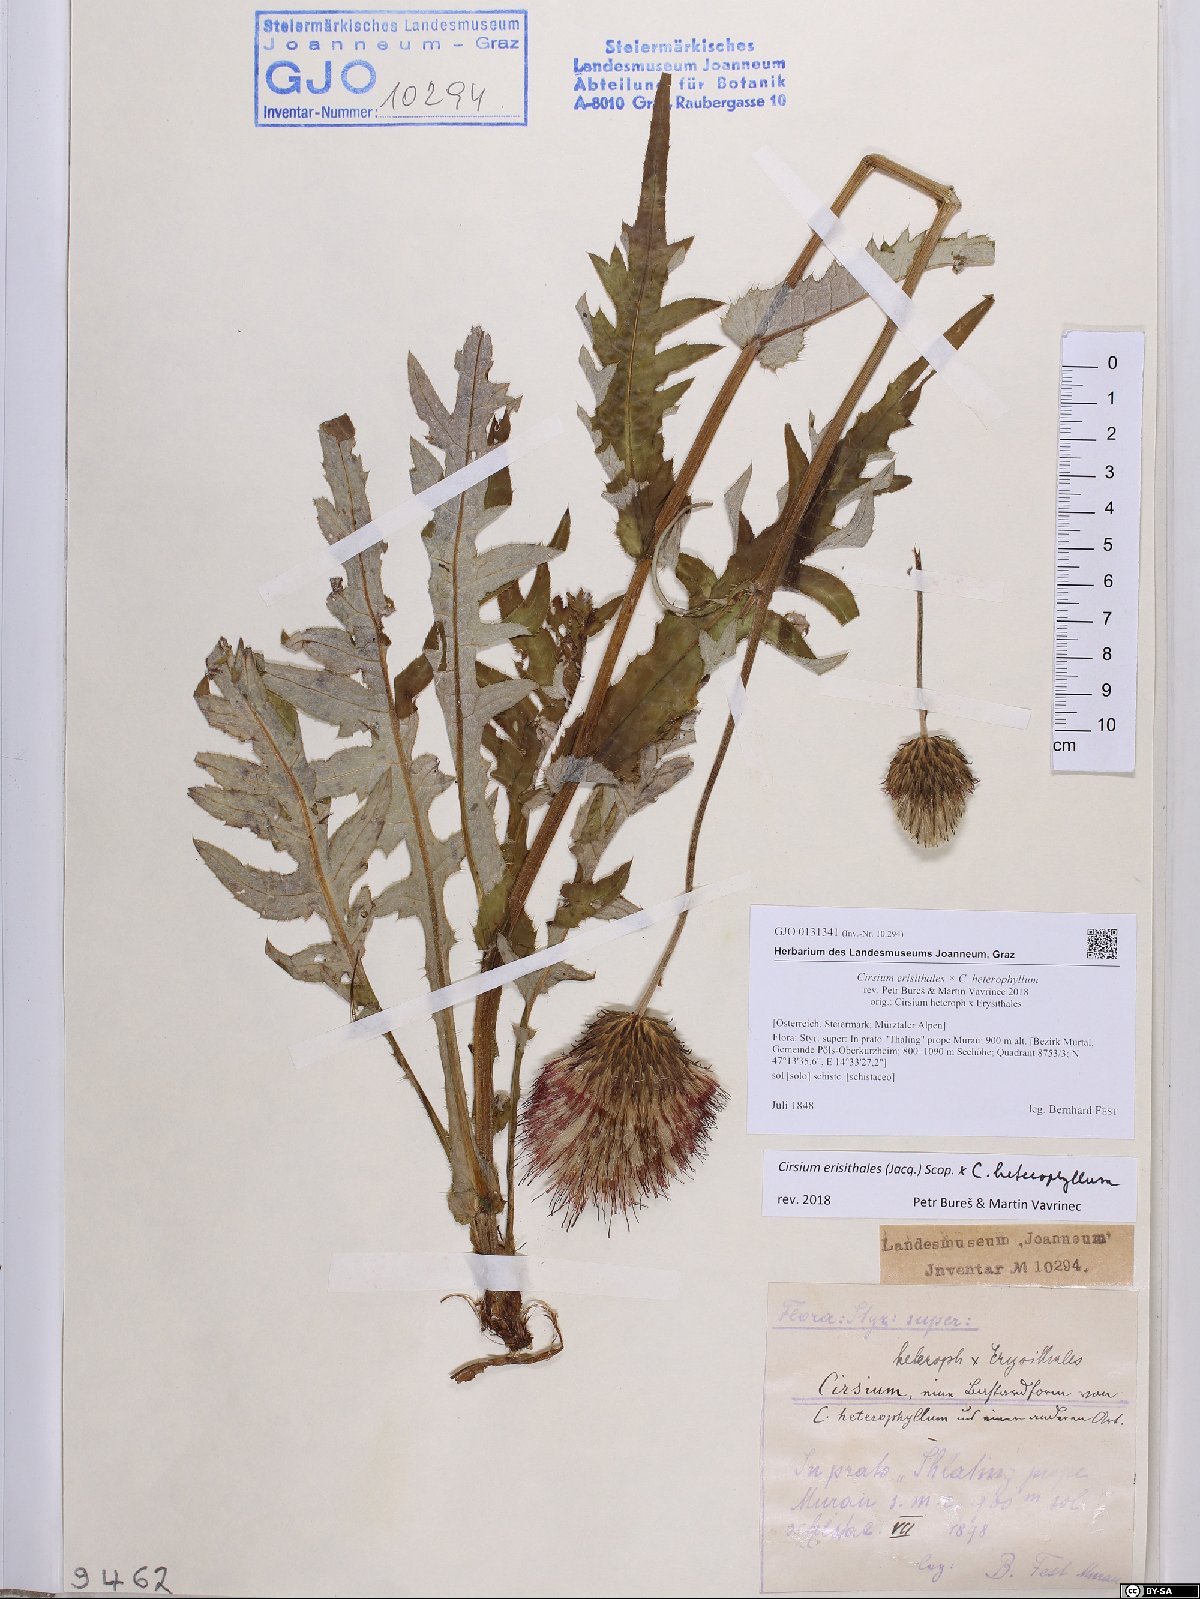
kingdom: Plantae
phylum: Tracheophyta
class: Magnoliopsida
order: Asterales
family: Asteraceae
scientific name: Asteraceae
